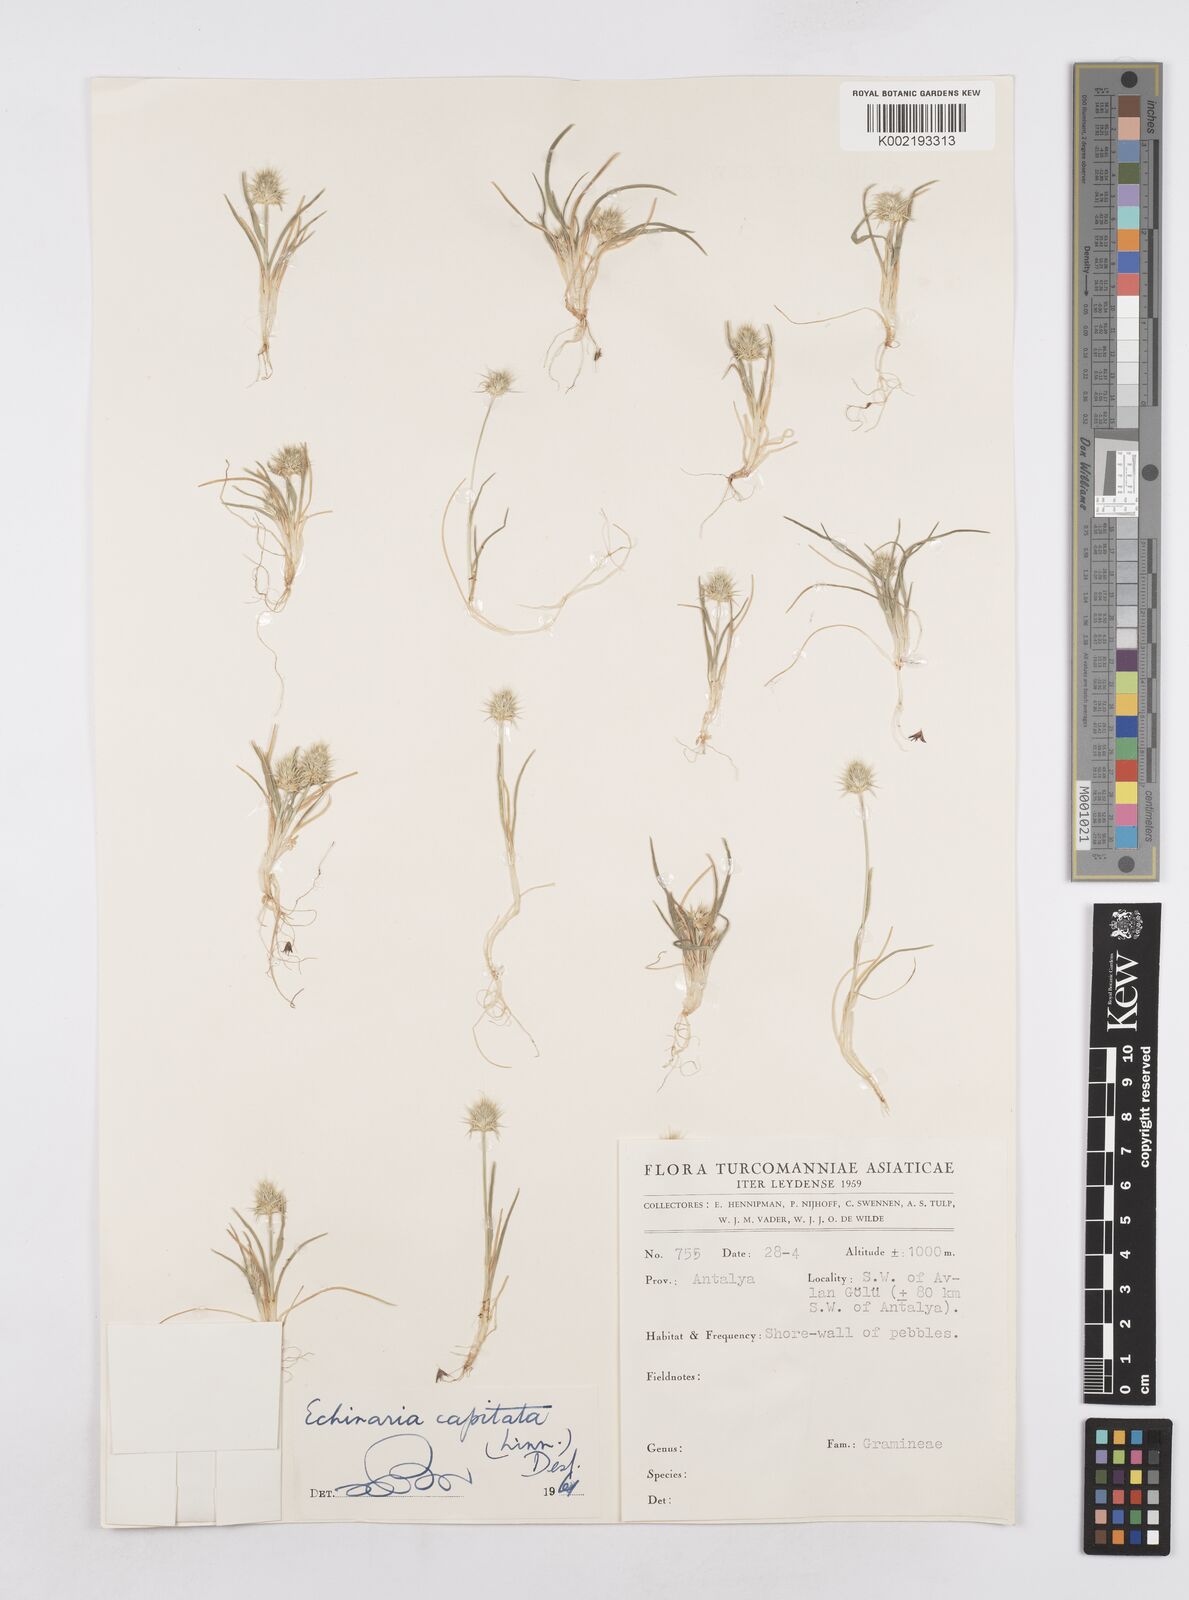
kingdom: Plantae
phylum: Tracheophyta
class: Liliopsida
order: Poales
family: Poaceae
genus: Echinaria
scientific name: Echinaria capitata
